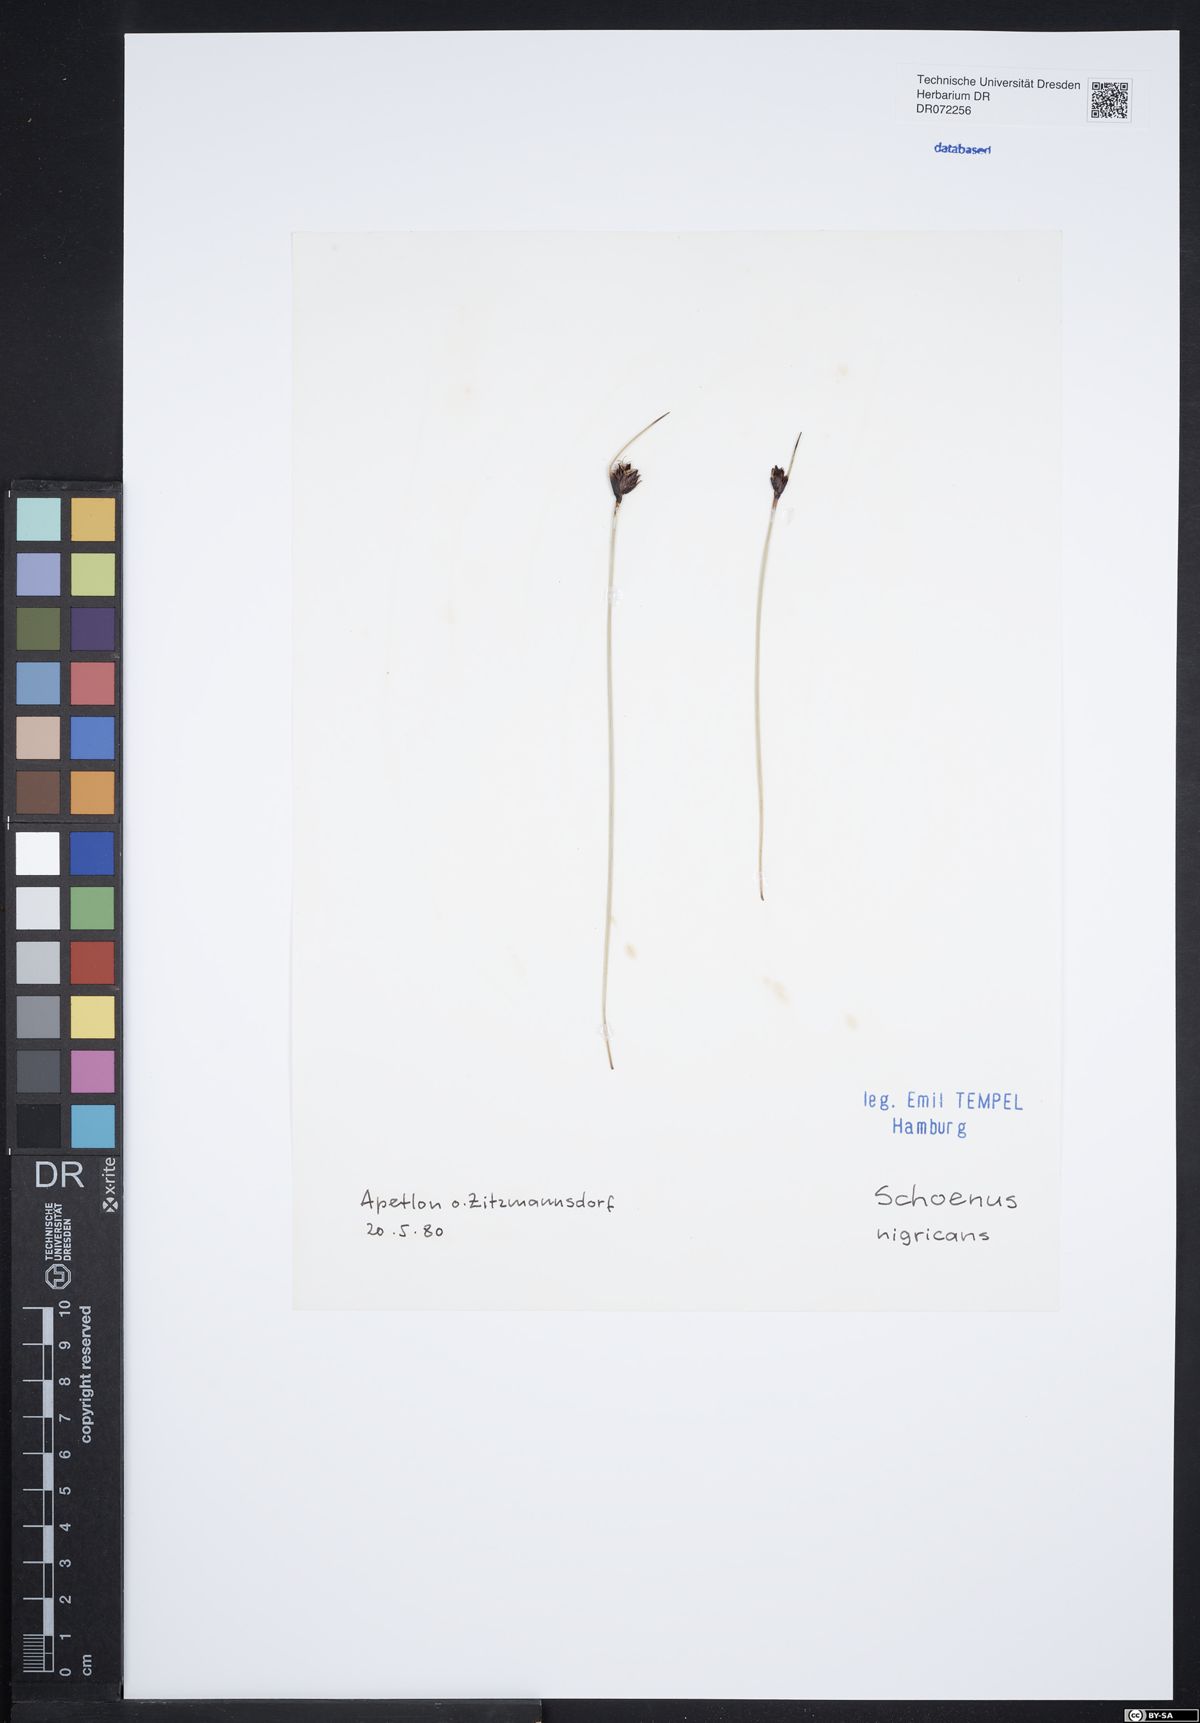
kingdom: Plantae
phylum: Tracheophyta
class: Liliopsida
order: Poales
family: Cyperaceae
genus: Schoenus
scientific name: Schoenus nigricans
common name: Black bog-rush
